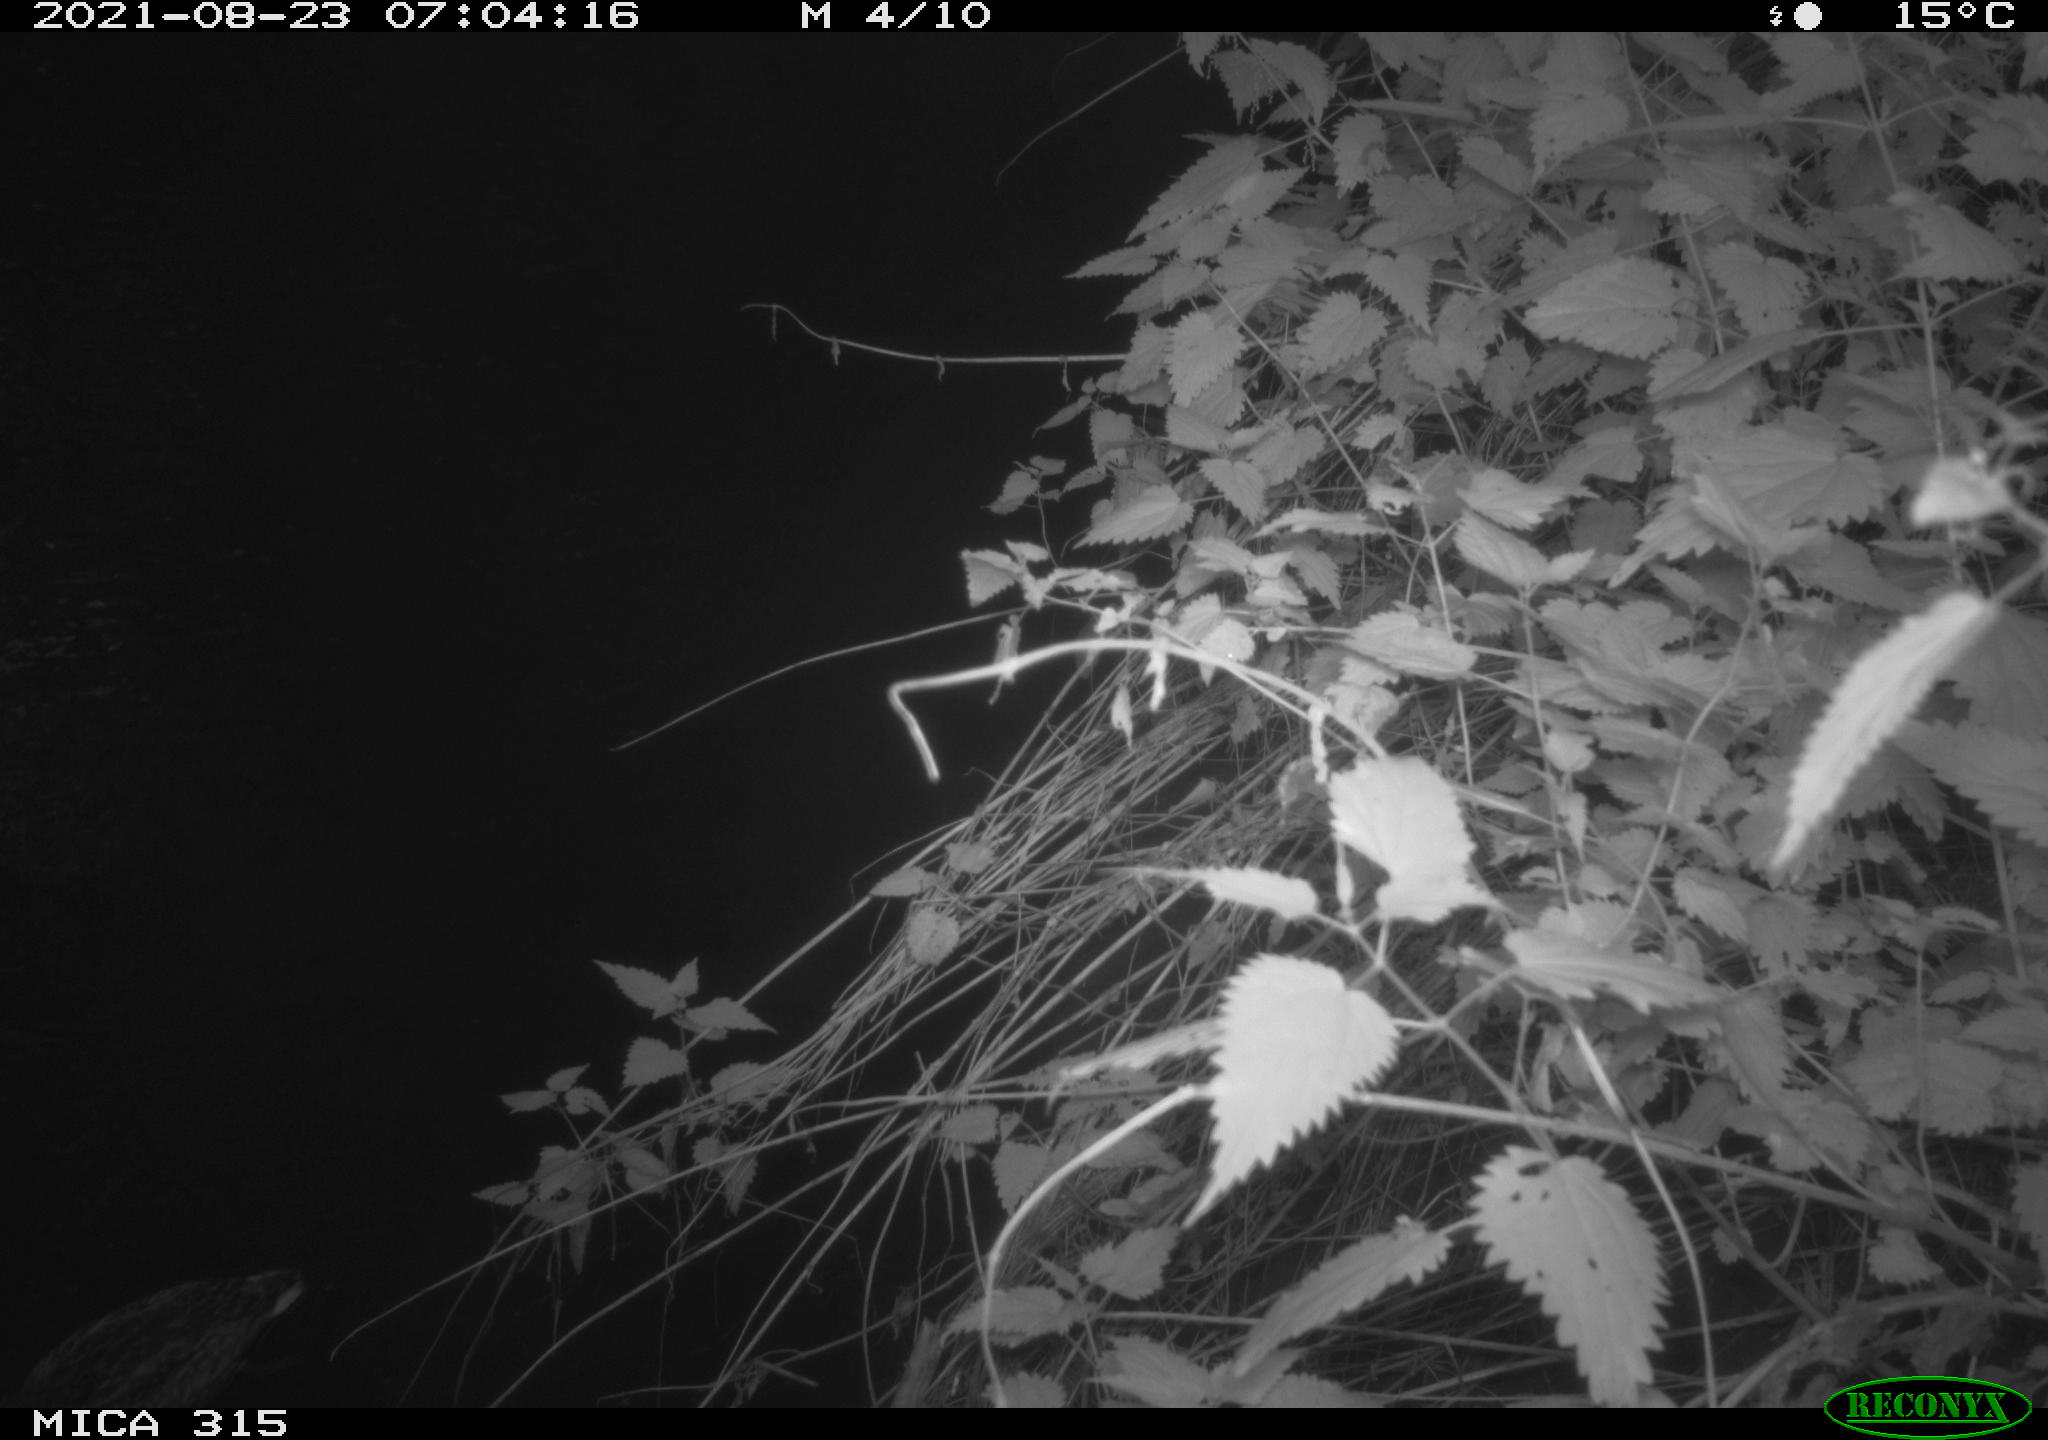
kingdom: Animalia
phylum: Chordata
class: Aves
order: Anseriformes
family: Anatidae
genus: Anas
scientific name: Anas platyrhynchos
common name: Mallard
